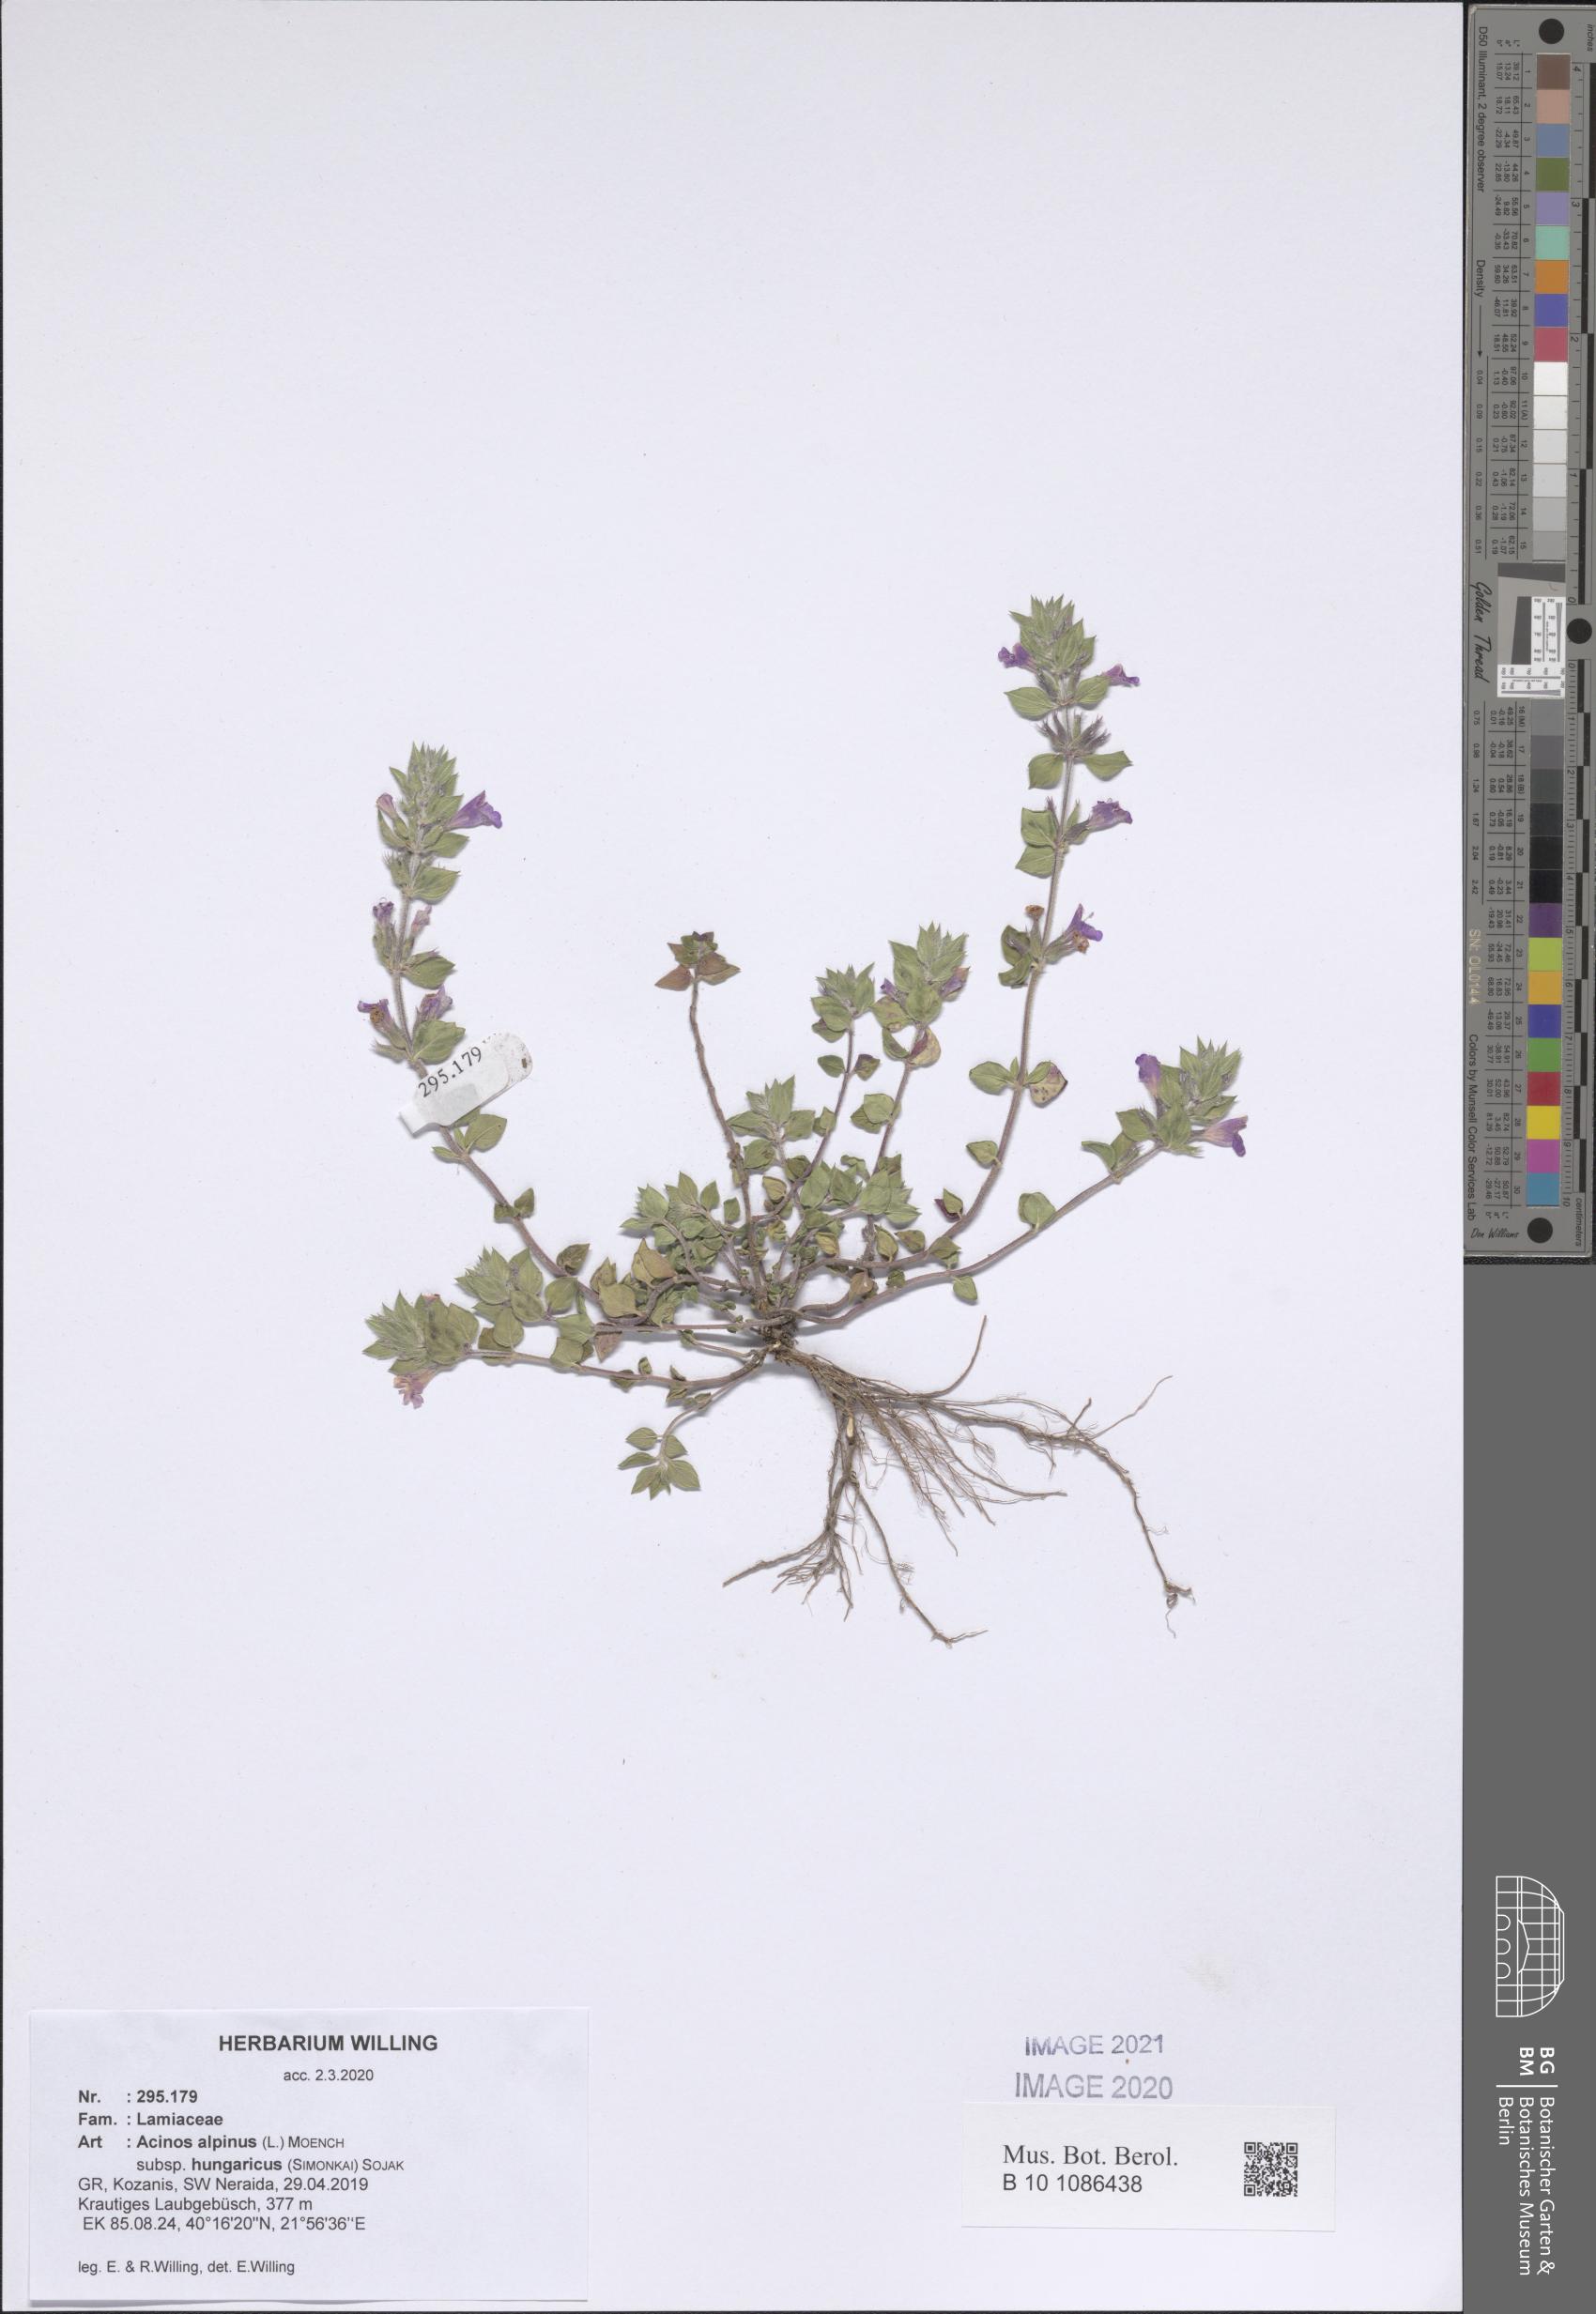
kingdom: Plantae
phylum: Tracheophyta
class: Magnoliopsida
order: Lamiales
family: Lamiaceae
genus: Clinopodium
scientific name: Clinopodium alpinum
